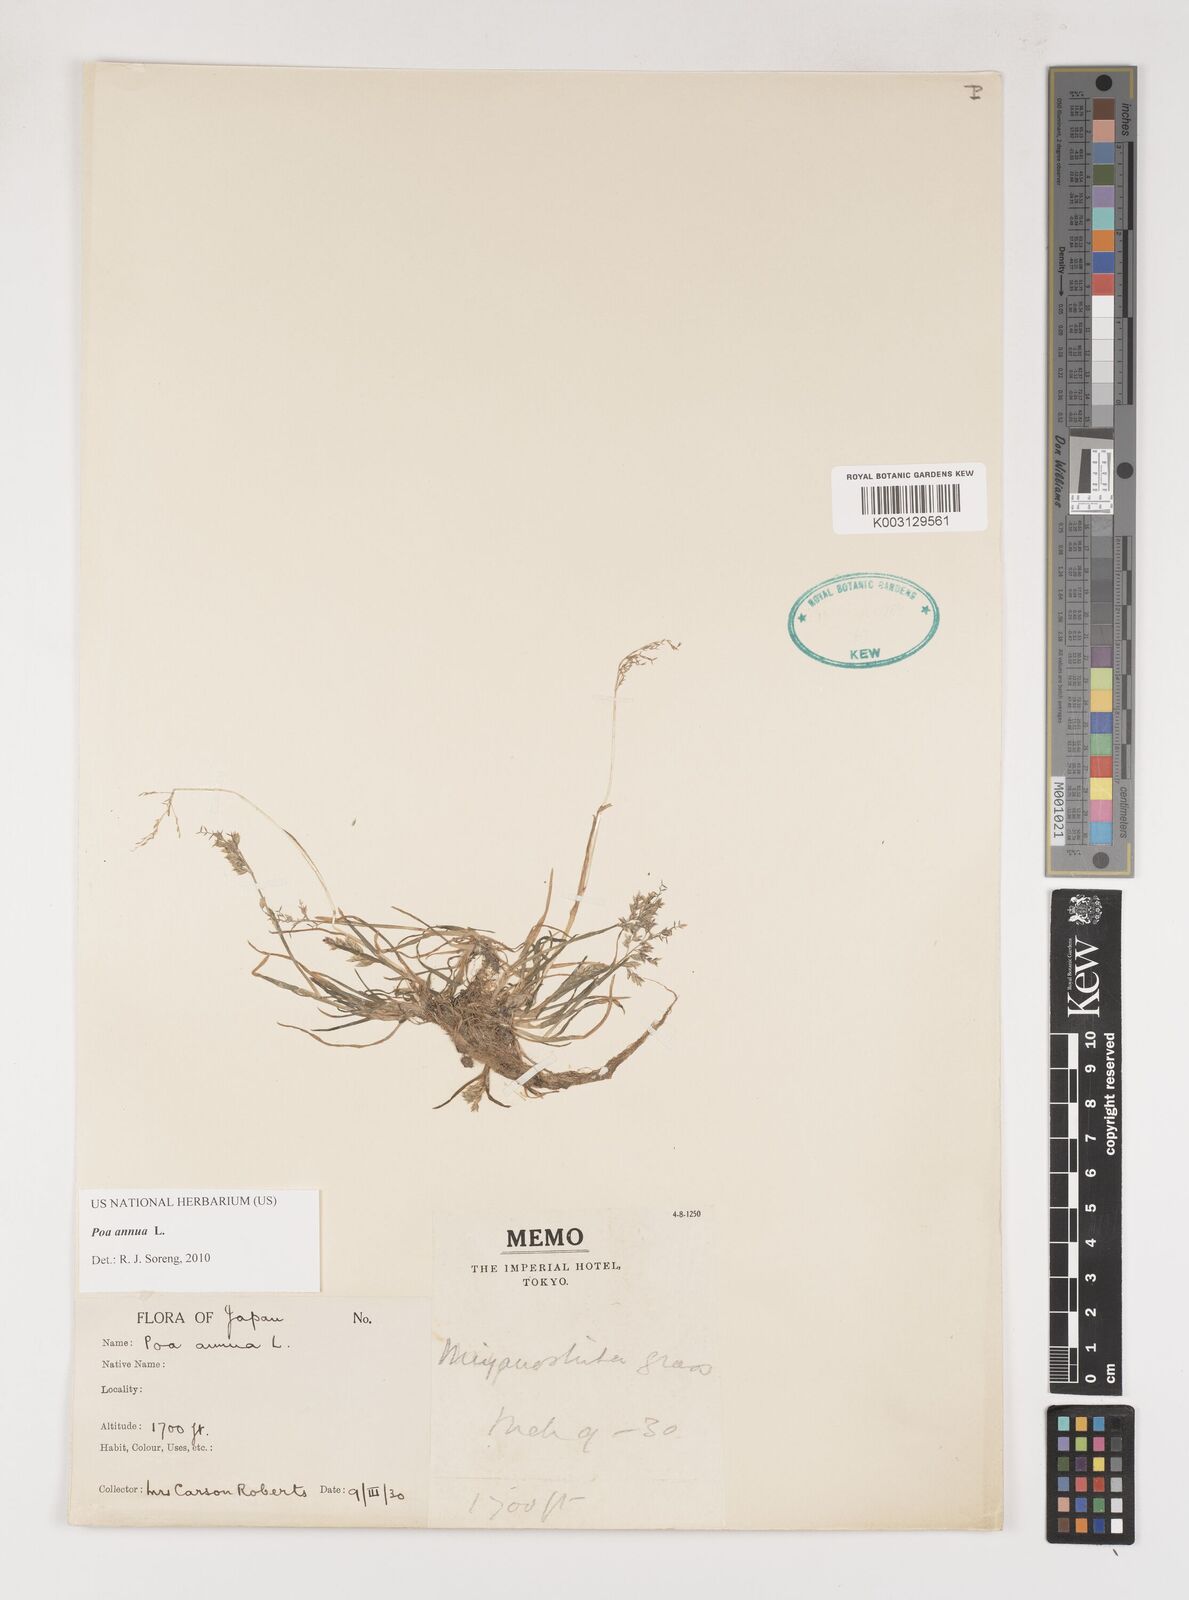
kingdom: Plantae
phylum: Tracheophyta
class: Liliopsida
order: Poales
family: Poaceae
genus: Poa
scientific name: Poa annua
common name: Annual bluegrass
